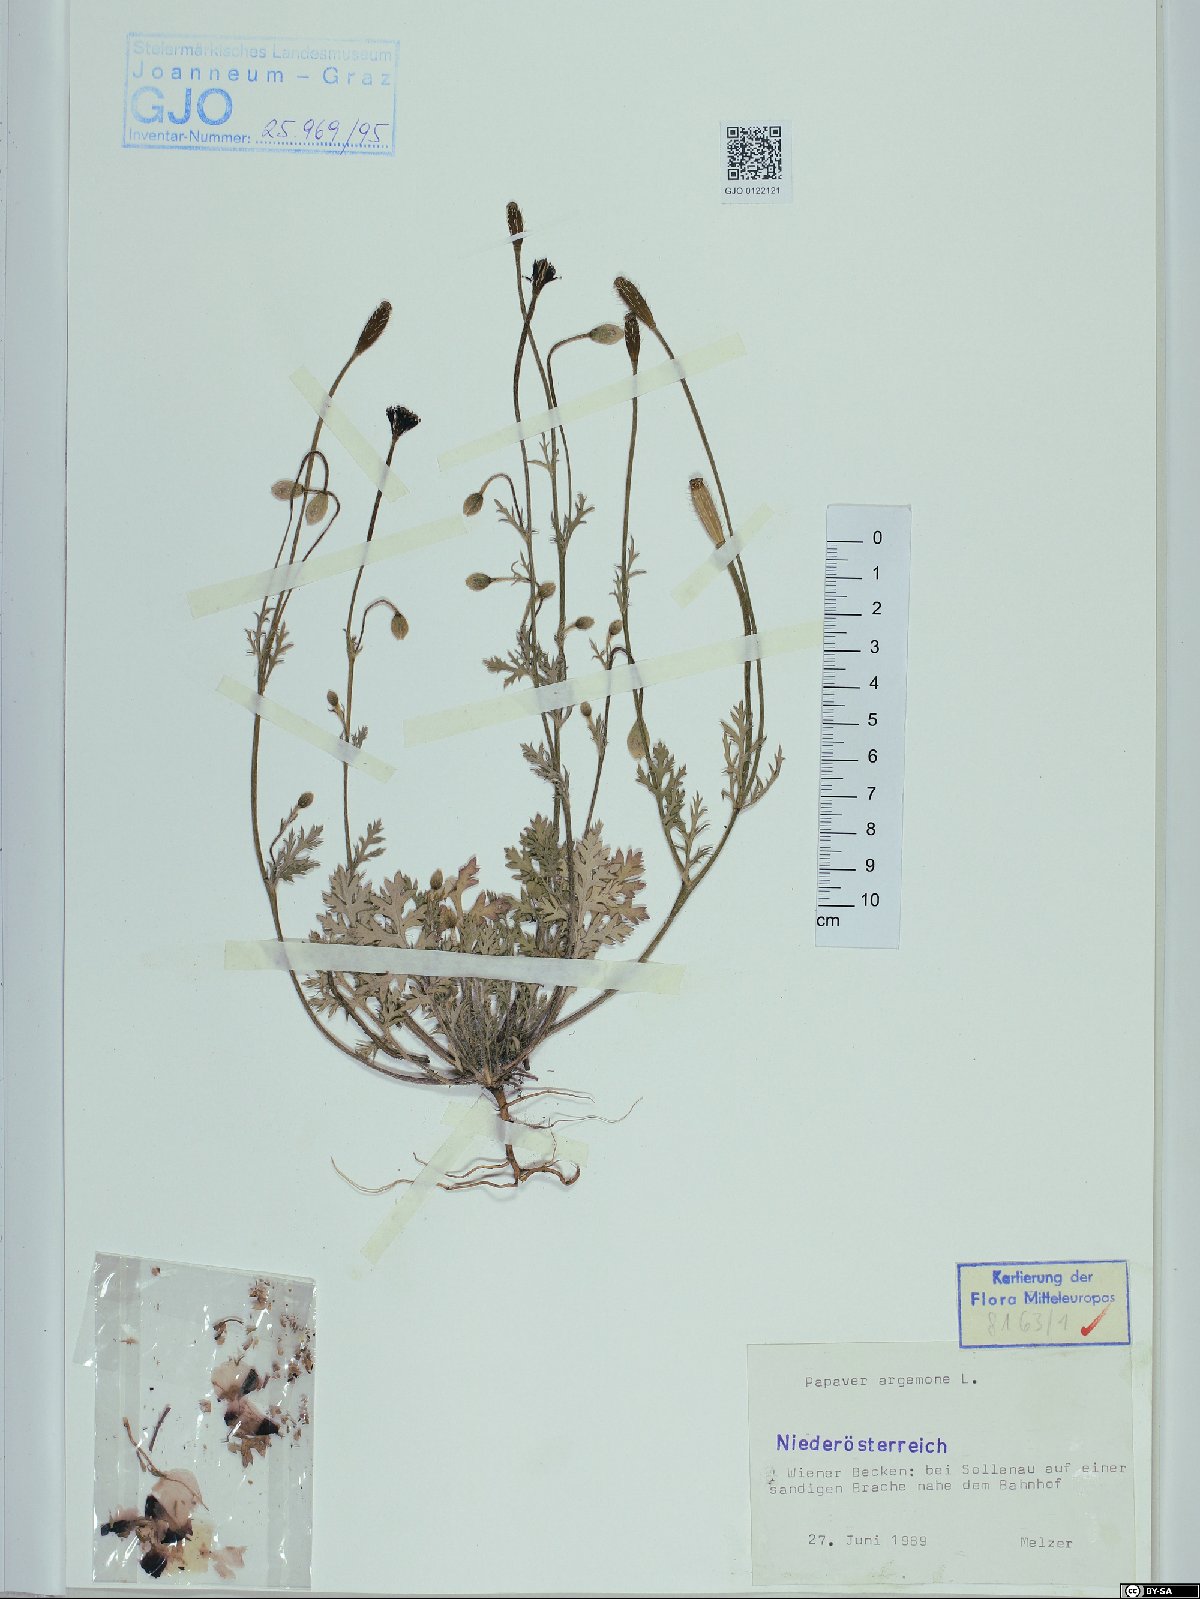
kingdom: Plantae
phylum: Tracheophyta
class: Magnoliopsida
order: Ranunculales
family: Papaveraceae
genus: Roemeria
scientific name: Roemeria argemone
